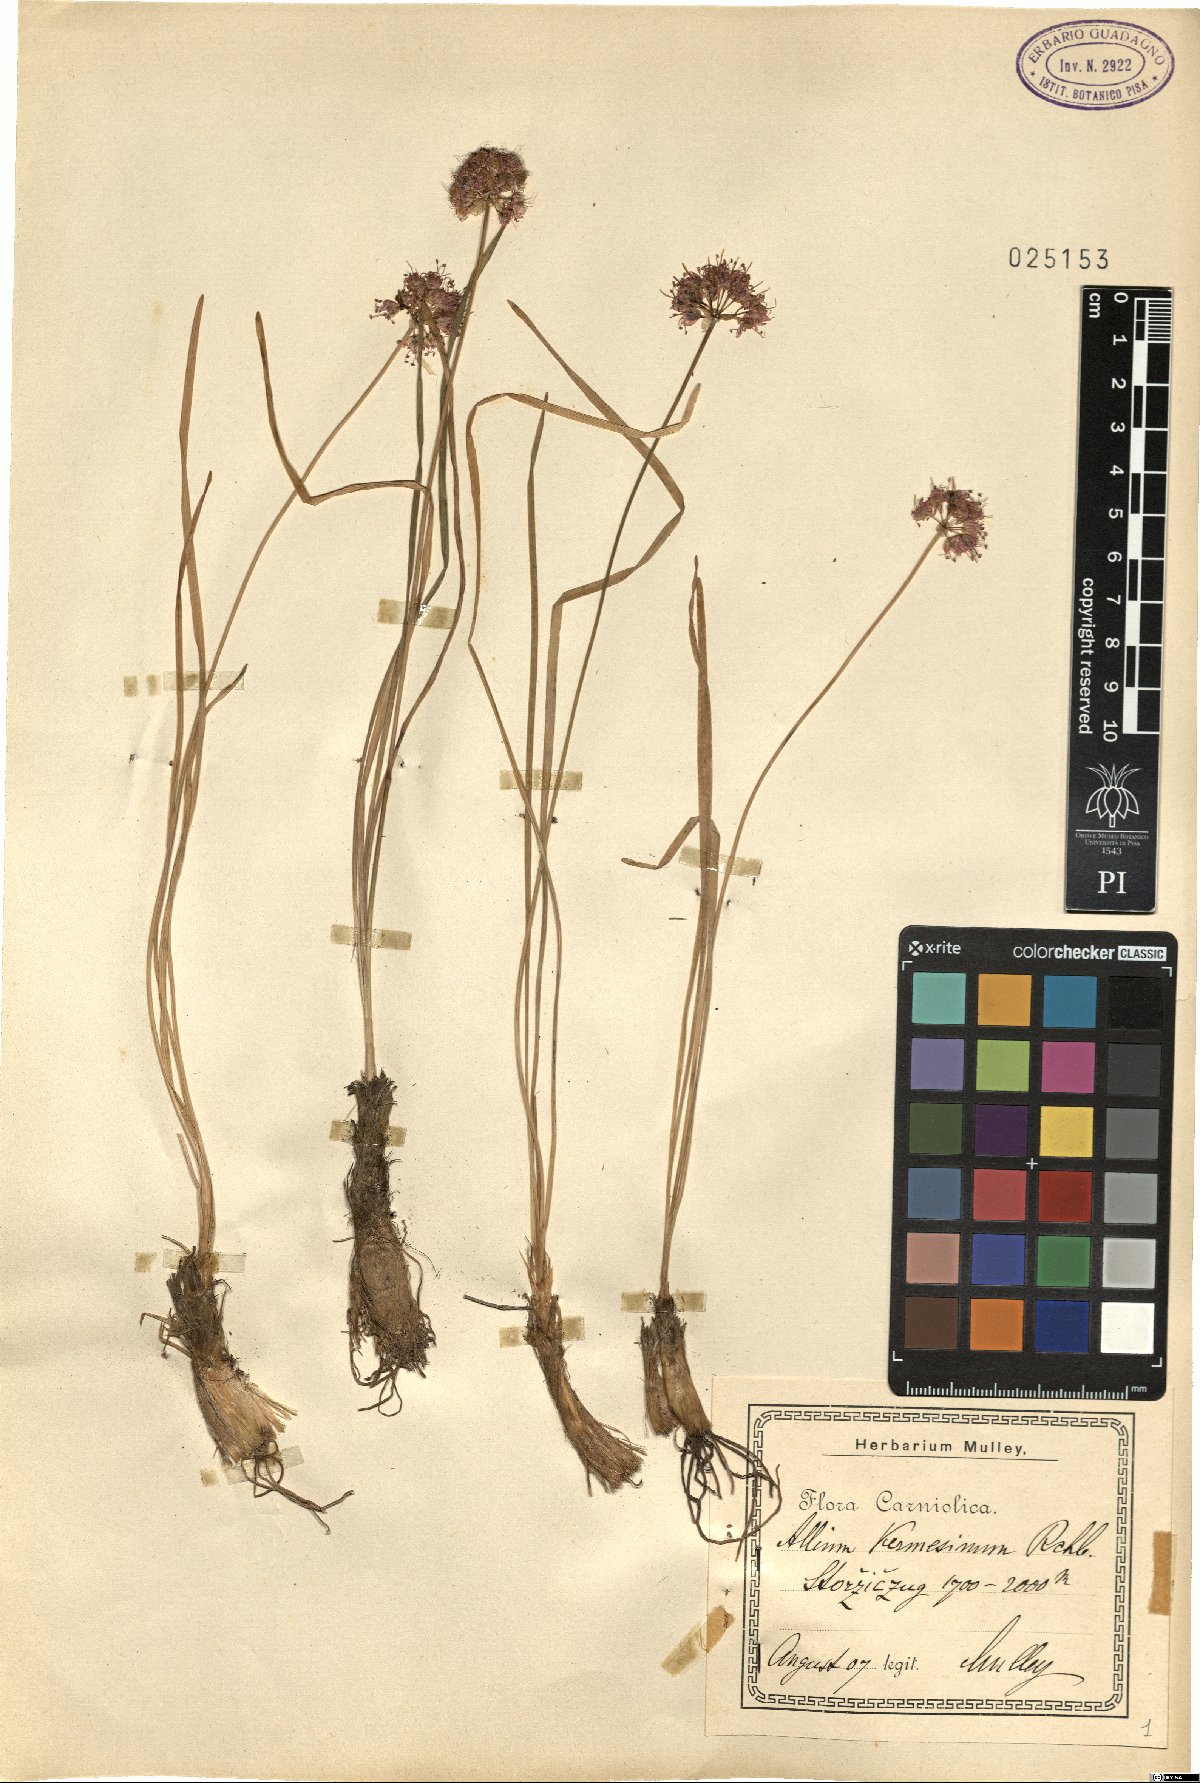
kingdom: Plantae
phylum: Tracheophyta
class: Liliopsida
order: Asparagales
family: Amaryllidaceae
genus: Allium
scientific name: Allium kermesinum
